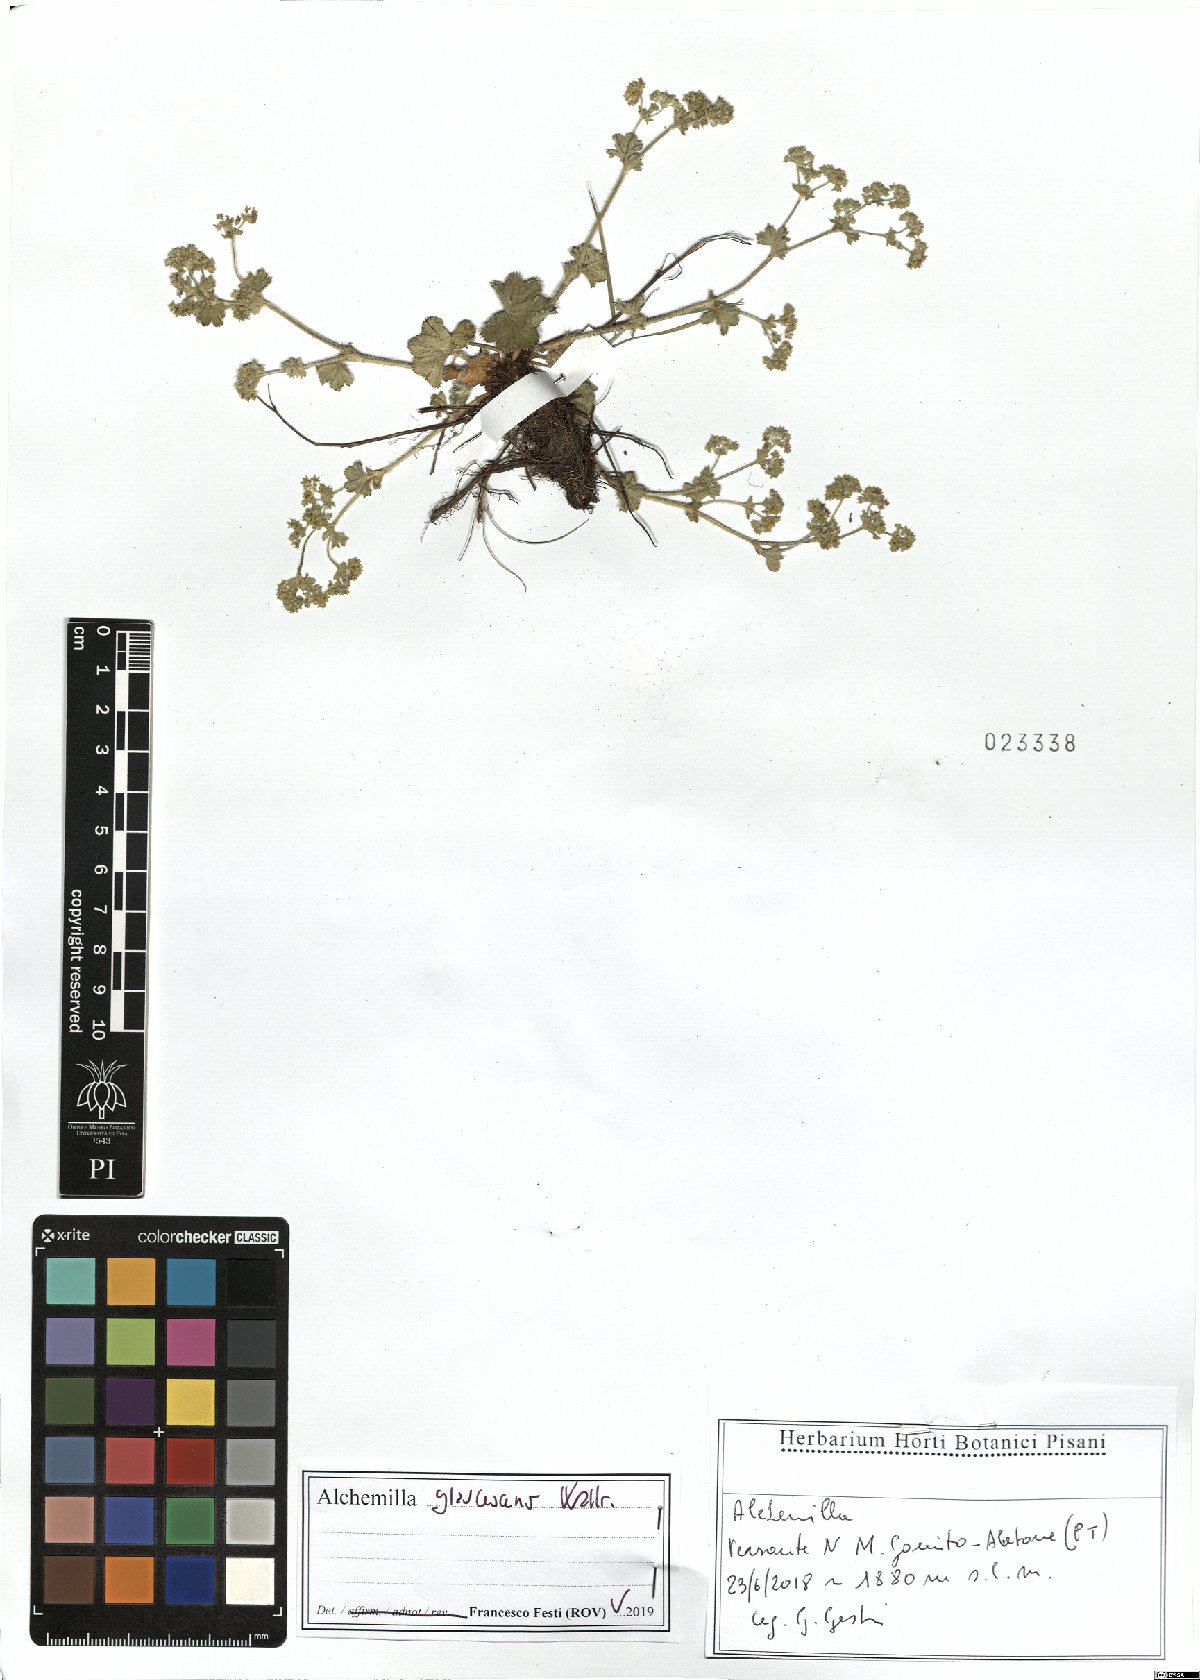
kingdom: Plantae
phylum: Tracheophyta
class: Magnoliopsida
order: Rosales
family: Rosaceae
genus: Alchemilla
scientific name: Alchemilla glaucescens
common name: Silky lady's mantle
